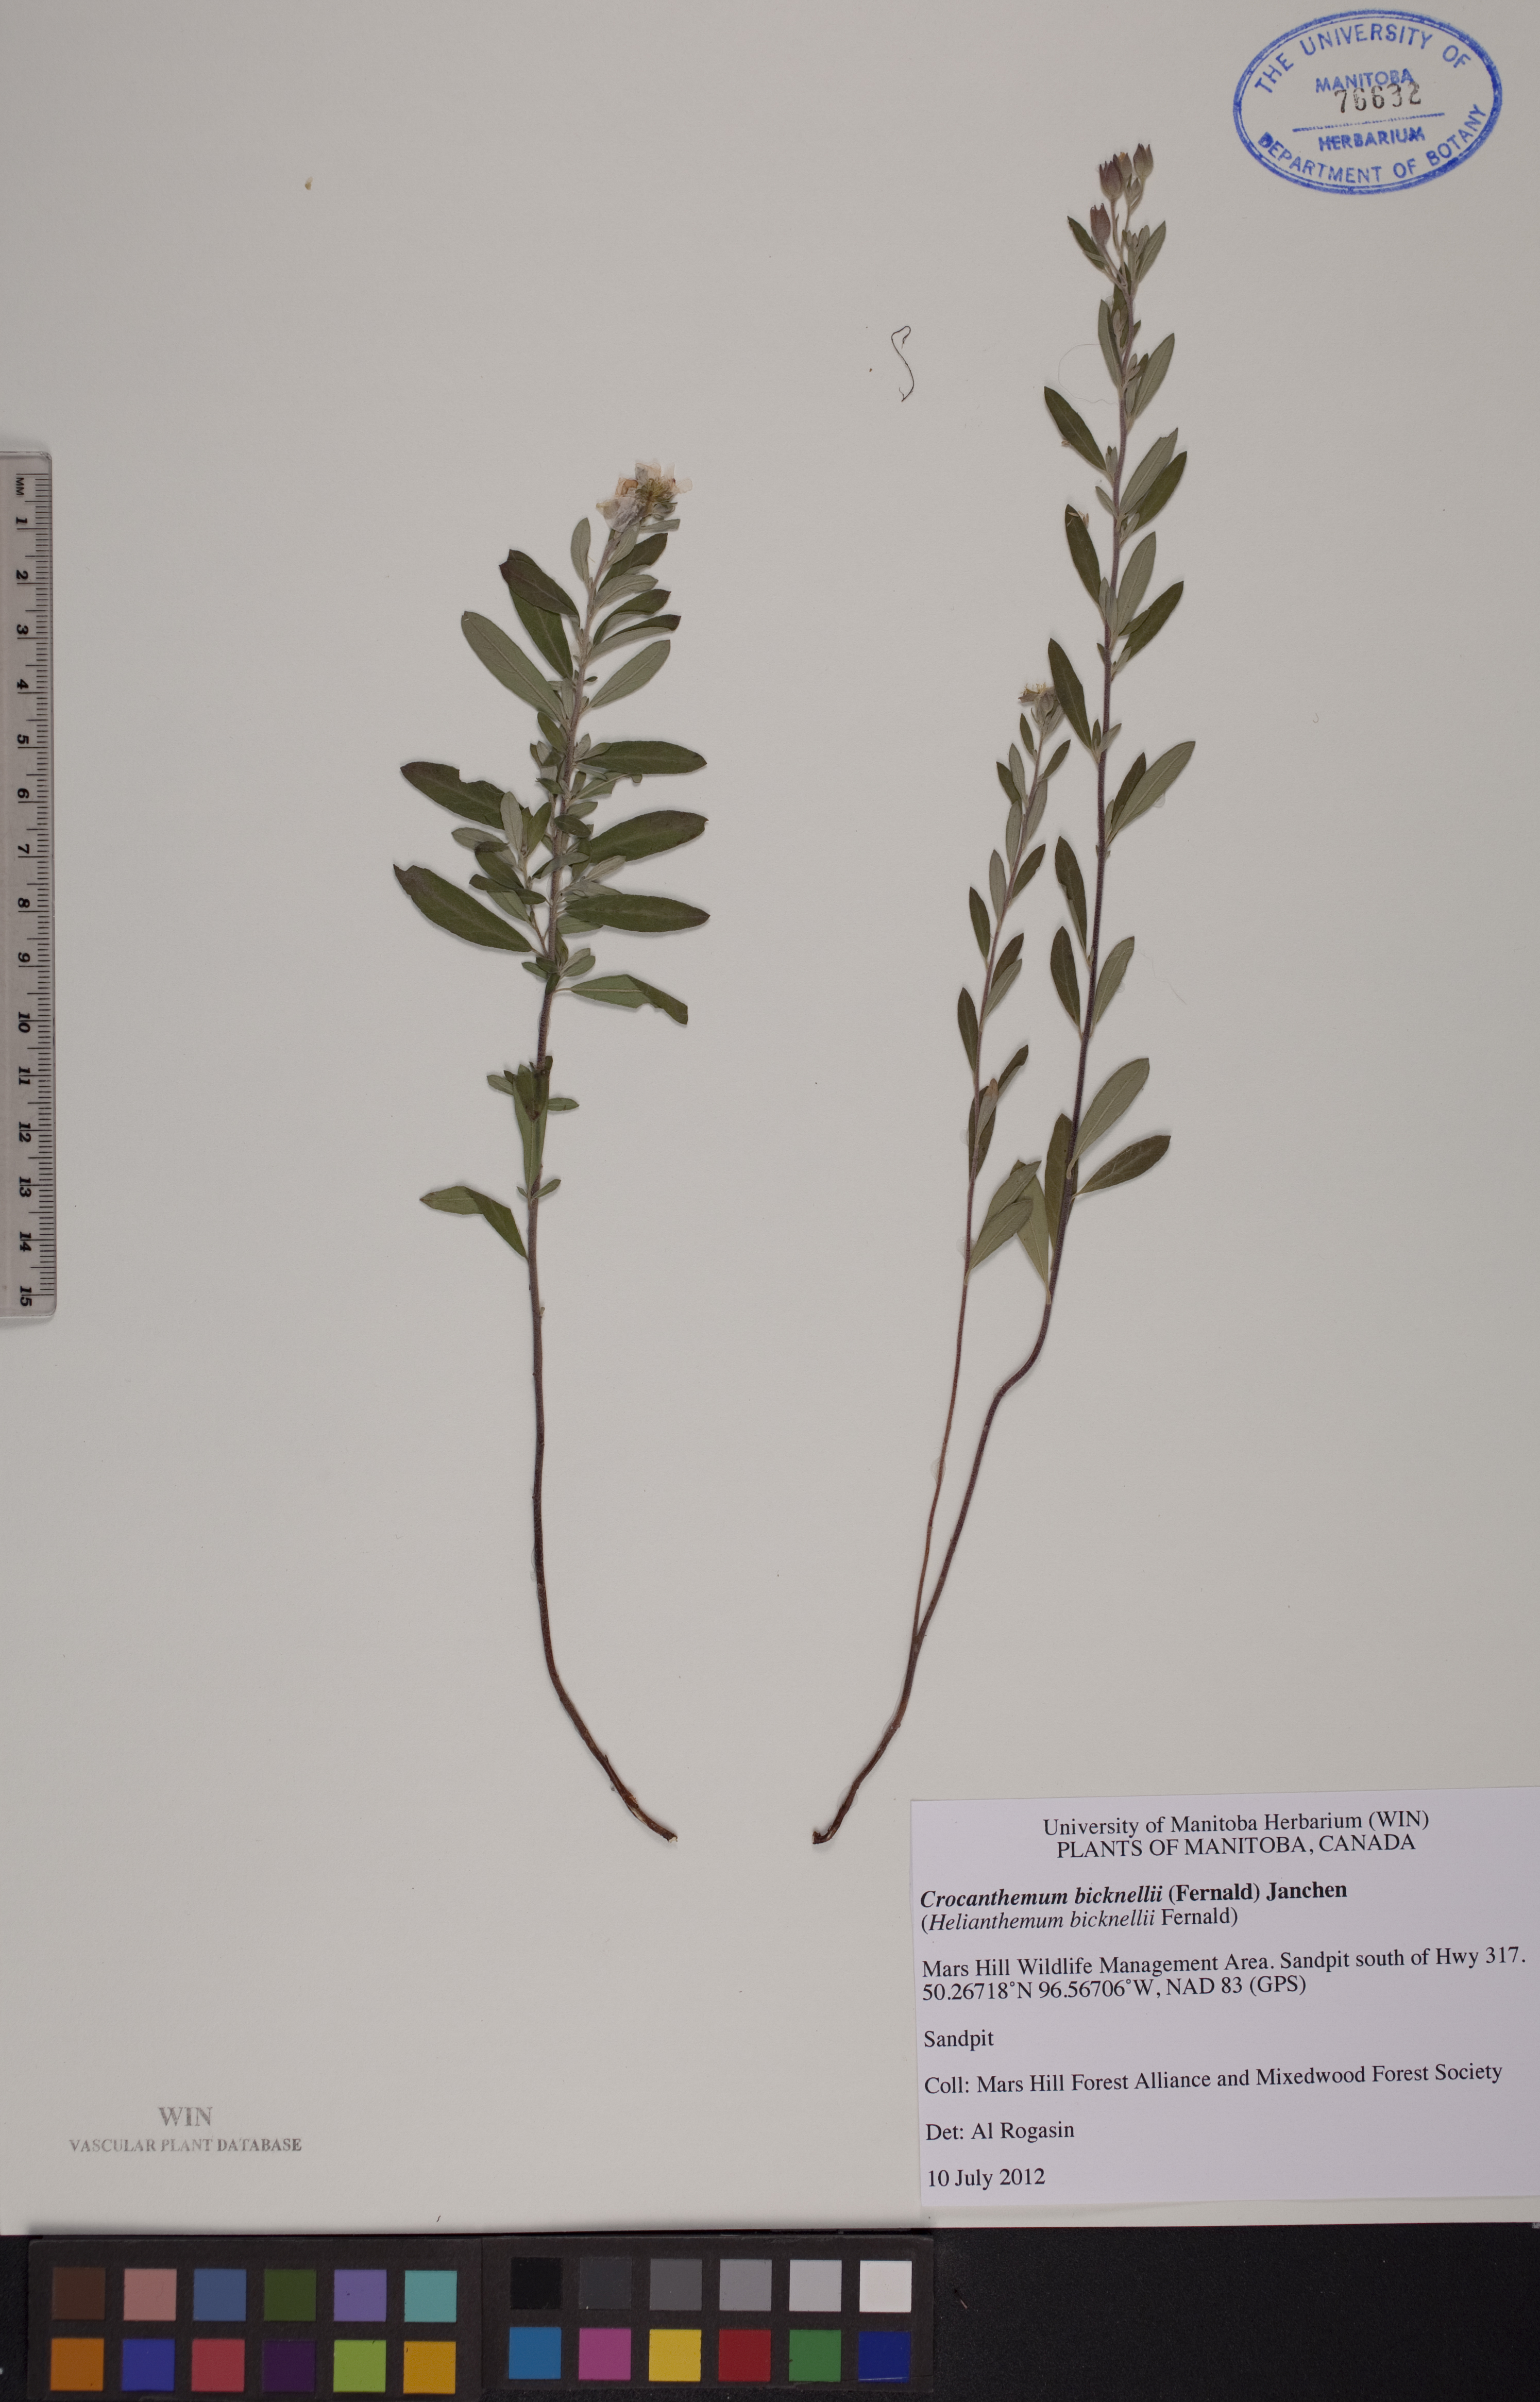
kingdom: Plantae
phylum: Tracheophyta
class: Magnoliopsida
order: Malvales
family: Cistaceae
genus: Crocanthemum
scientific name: Crocanthemum bicknellii
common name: Hoary frostweed
